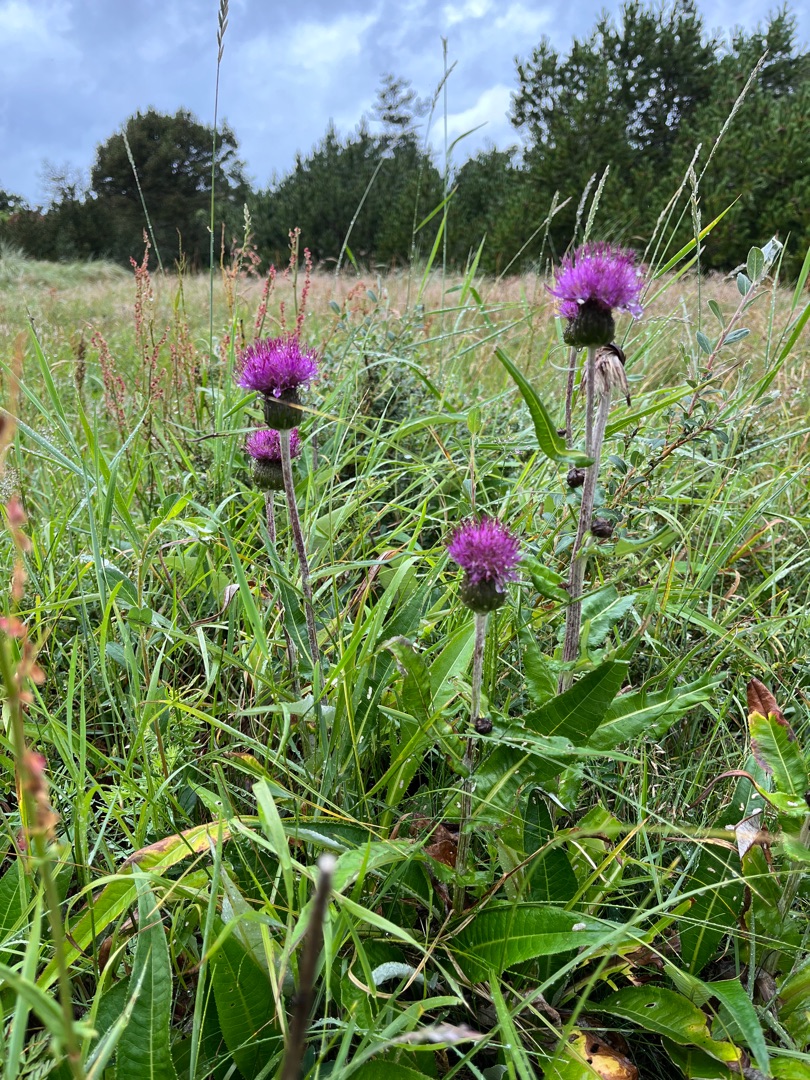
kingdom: Plantae
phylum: Tracheophyta
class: Magnoliopsida
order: Asterales
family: Asteraceae
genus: Cirsium
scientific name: Cirsium heterophyllum
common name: Forskelligbladet tidsel
